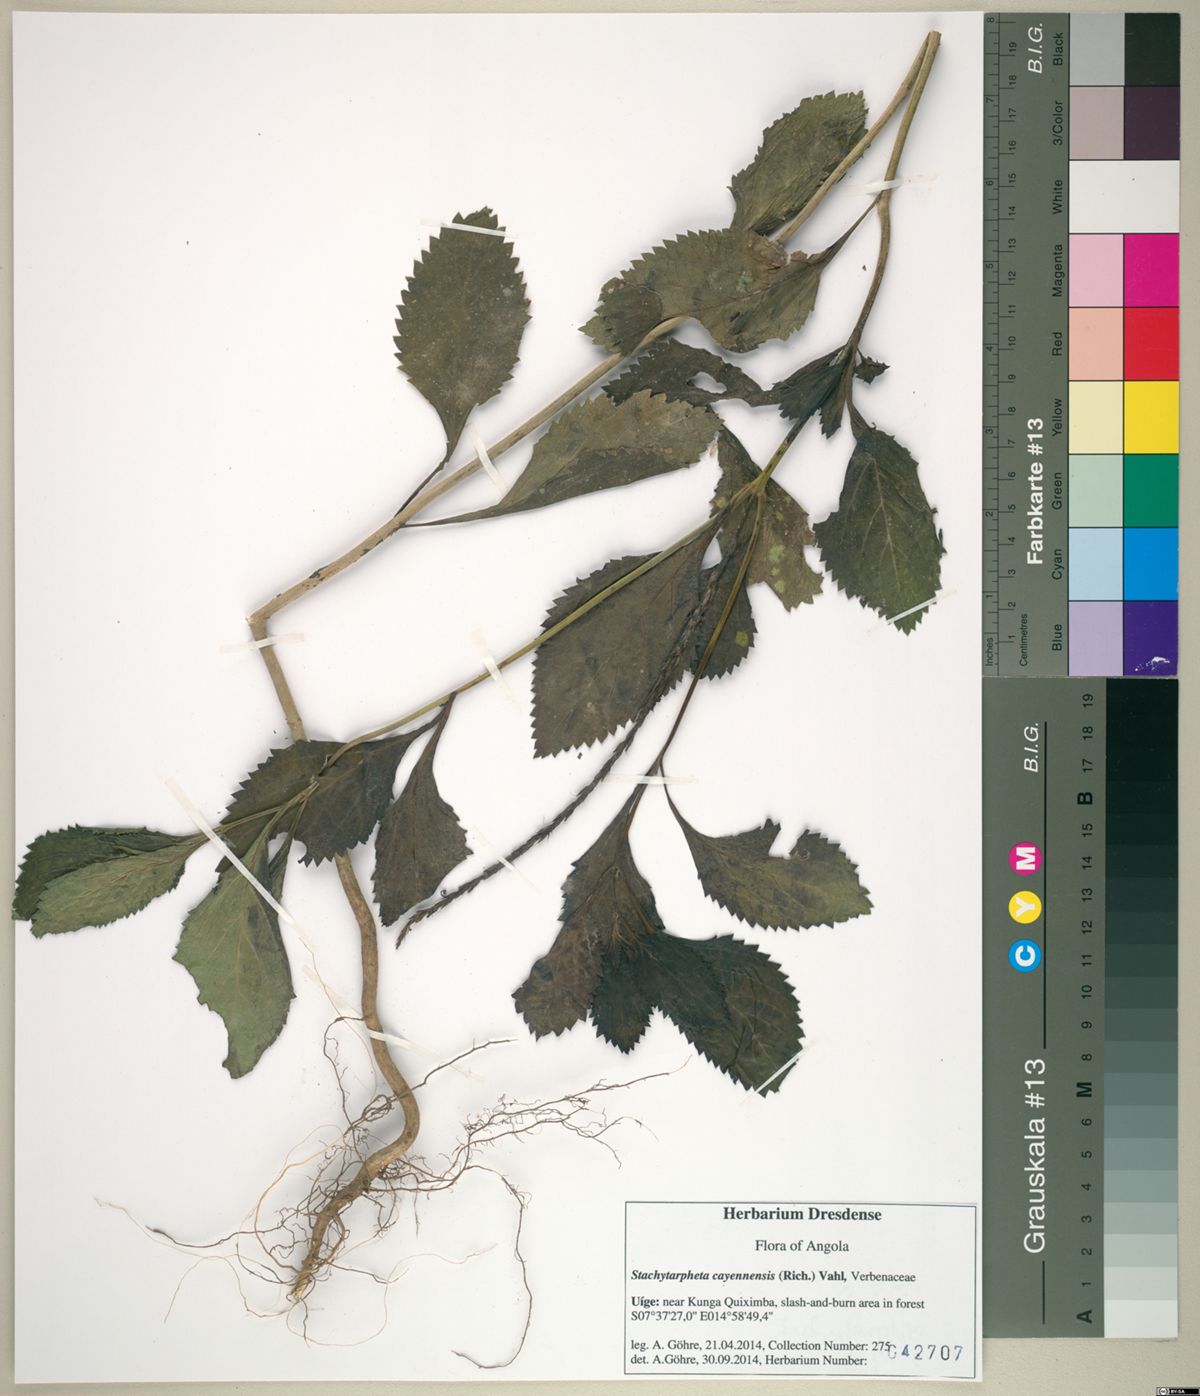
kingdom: Plantae
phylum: Tracheophyta
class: Magnoliopsida
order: Lamiales
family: Verbenaceae
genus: Stachytarpheta
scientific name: Stachytarpheta cayennensis
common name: Cayenne porterweed
